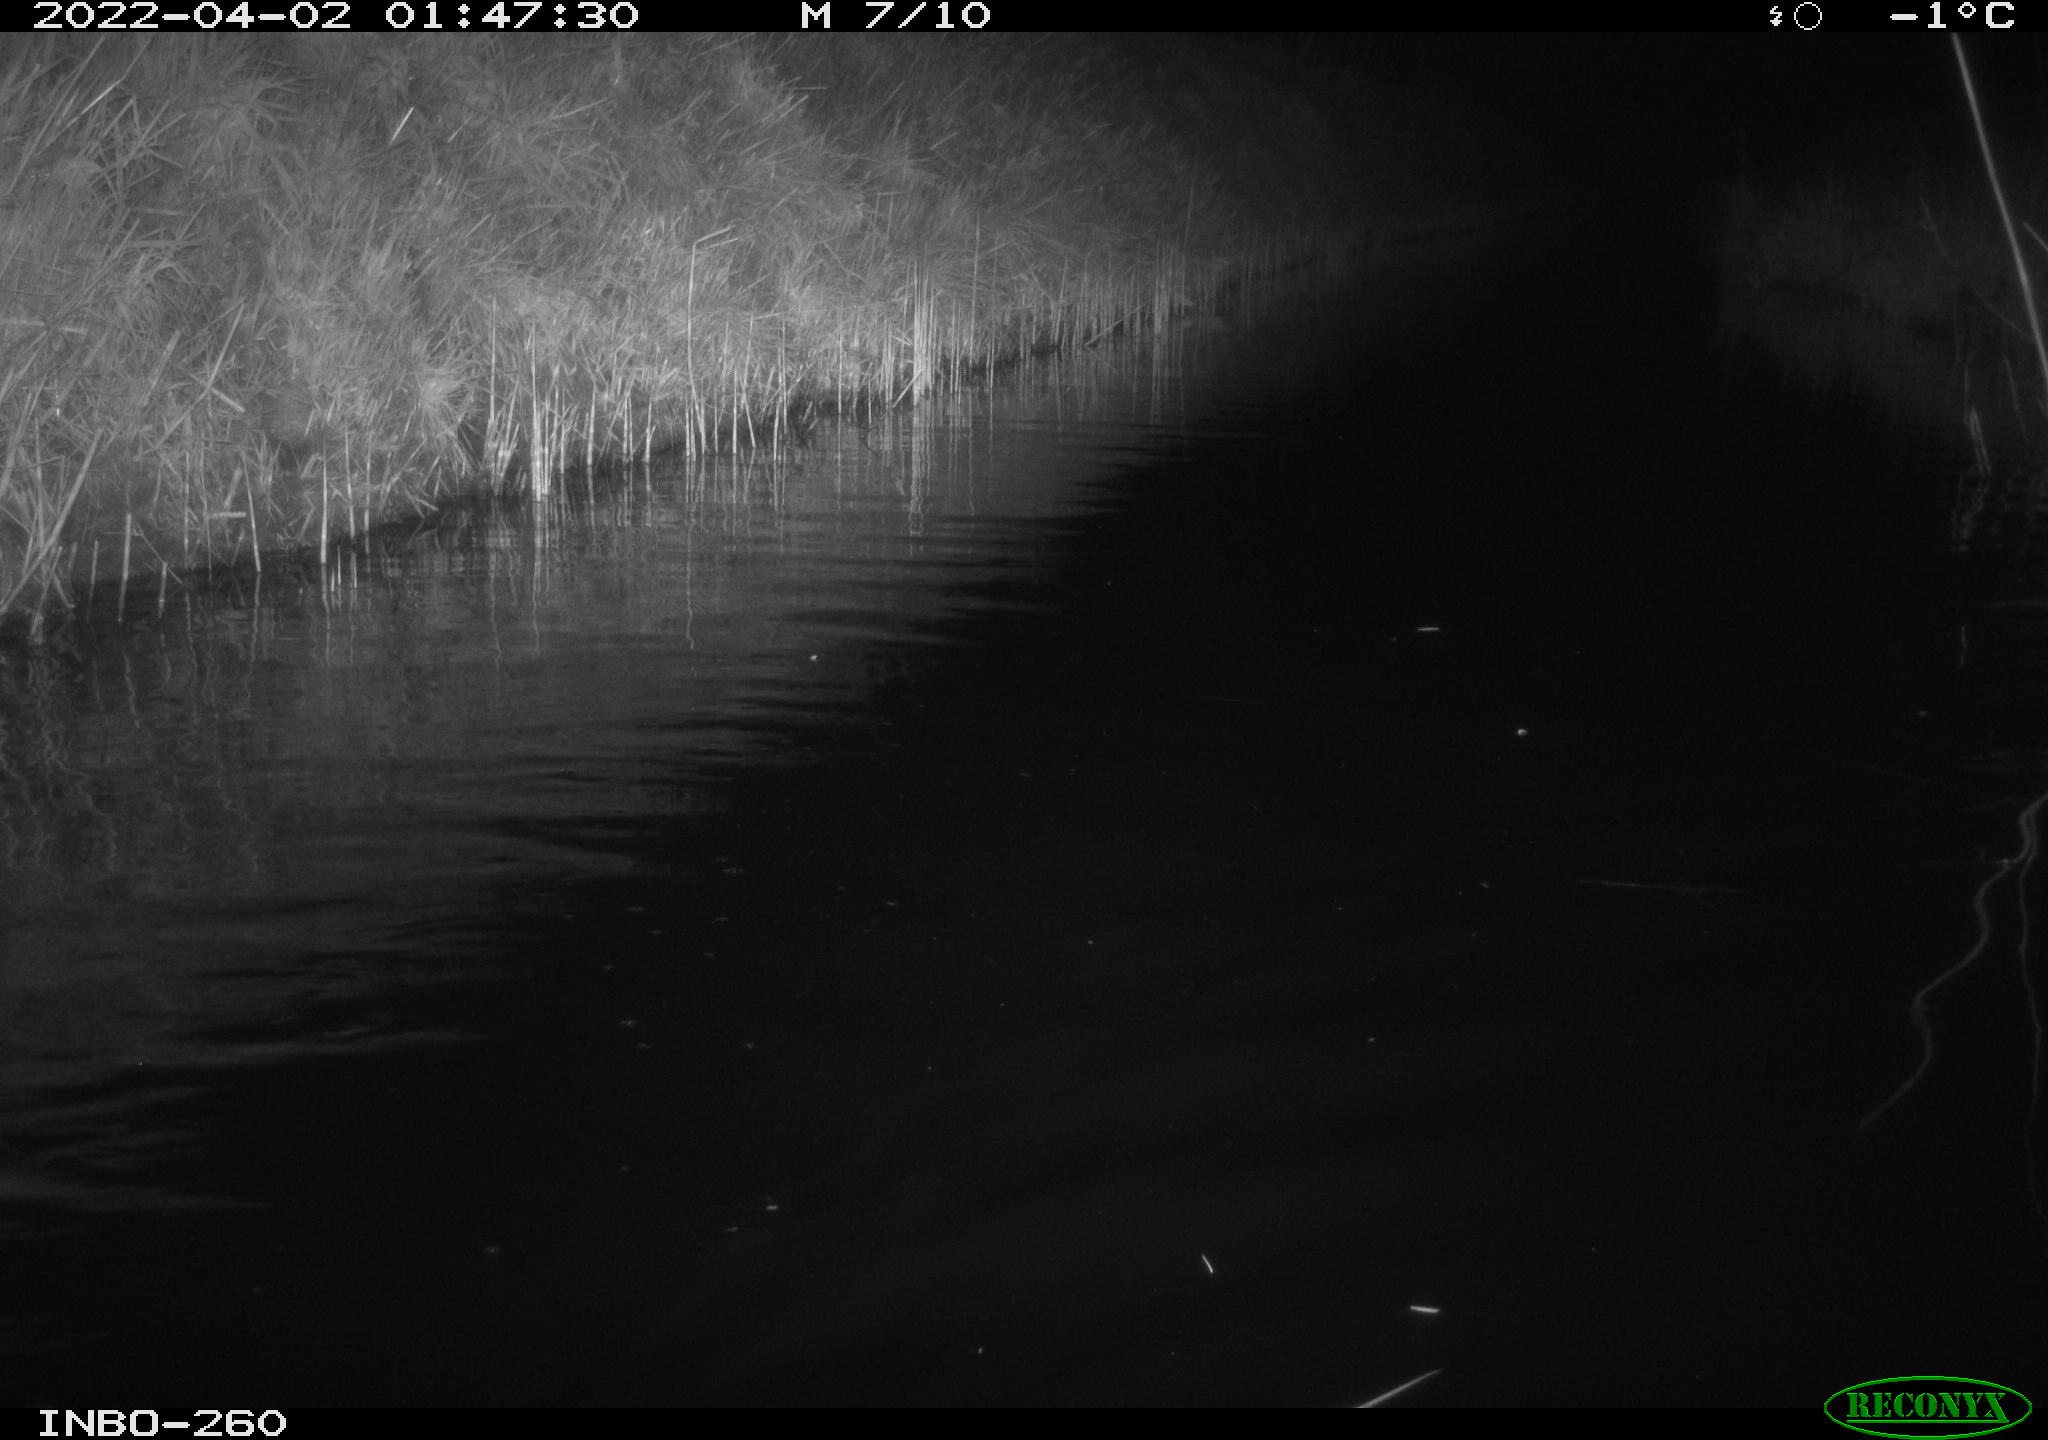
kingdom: Animalia
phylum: Chordata
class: Mammalia
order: Rodentia
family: Cricetidae
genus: Ondatra
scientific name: Ondatra zibethicus
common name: Muskrat
